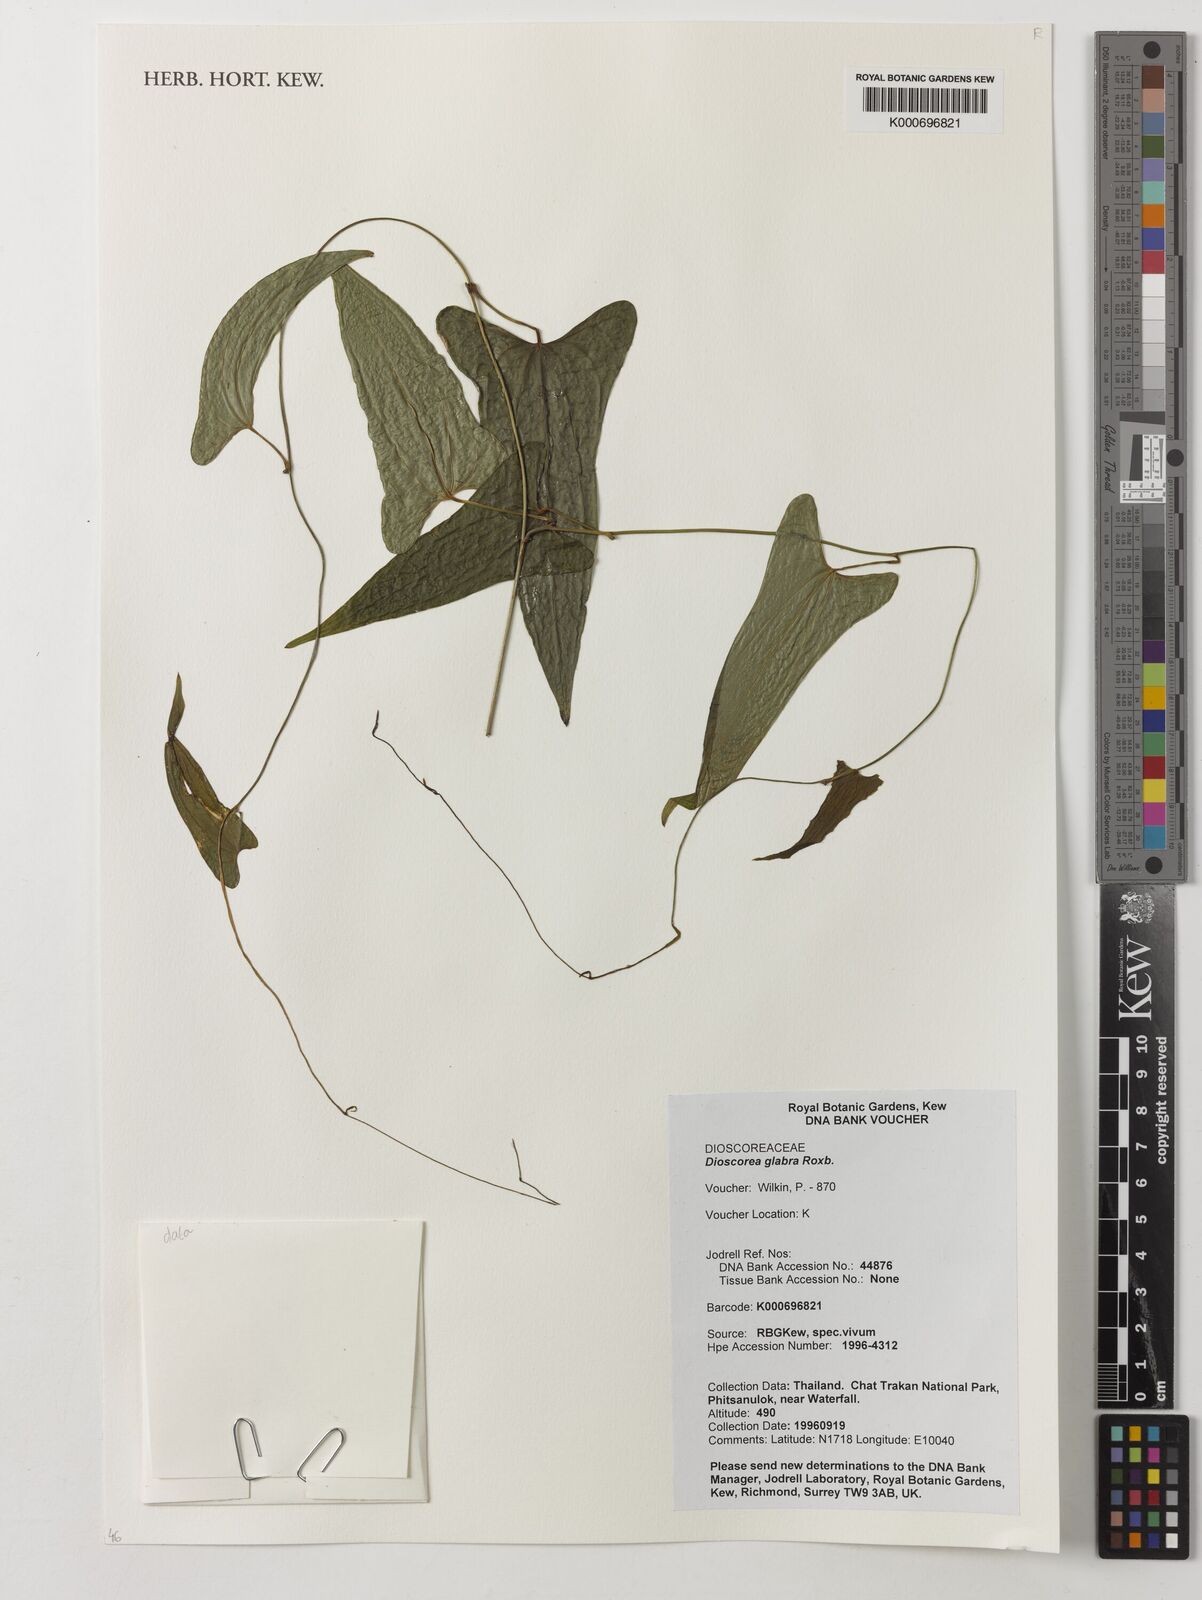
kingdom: Plantae
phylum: Tracheophyta
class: Liliopsida
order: Dioscoreales
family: Dioscoreaceae
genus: Dioscorea
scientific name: Dioscorea glabra
